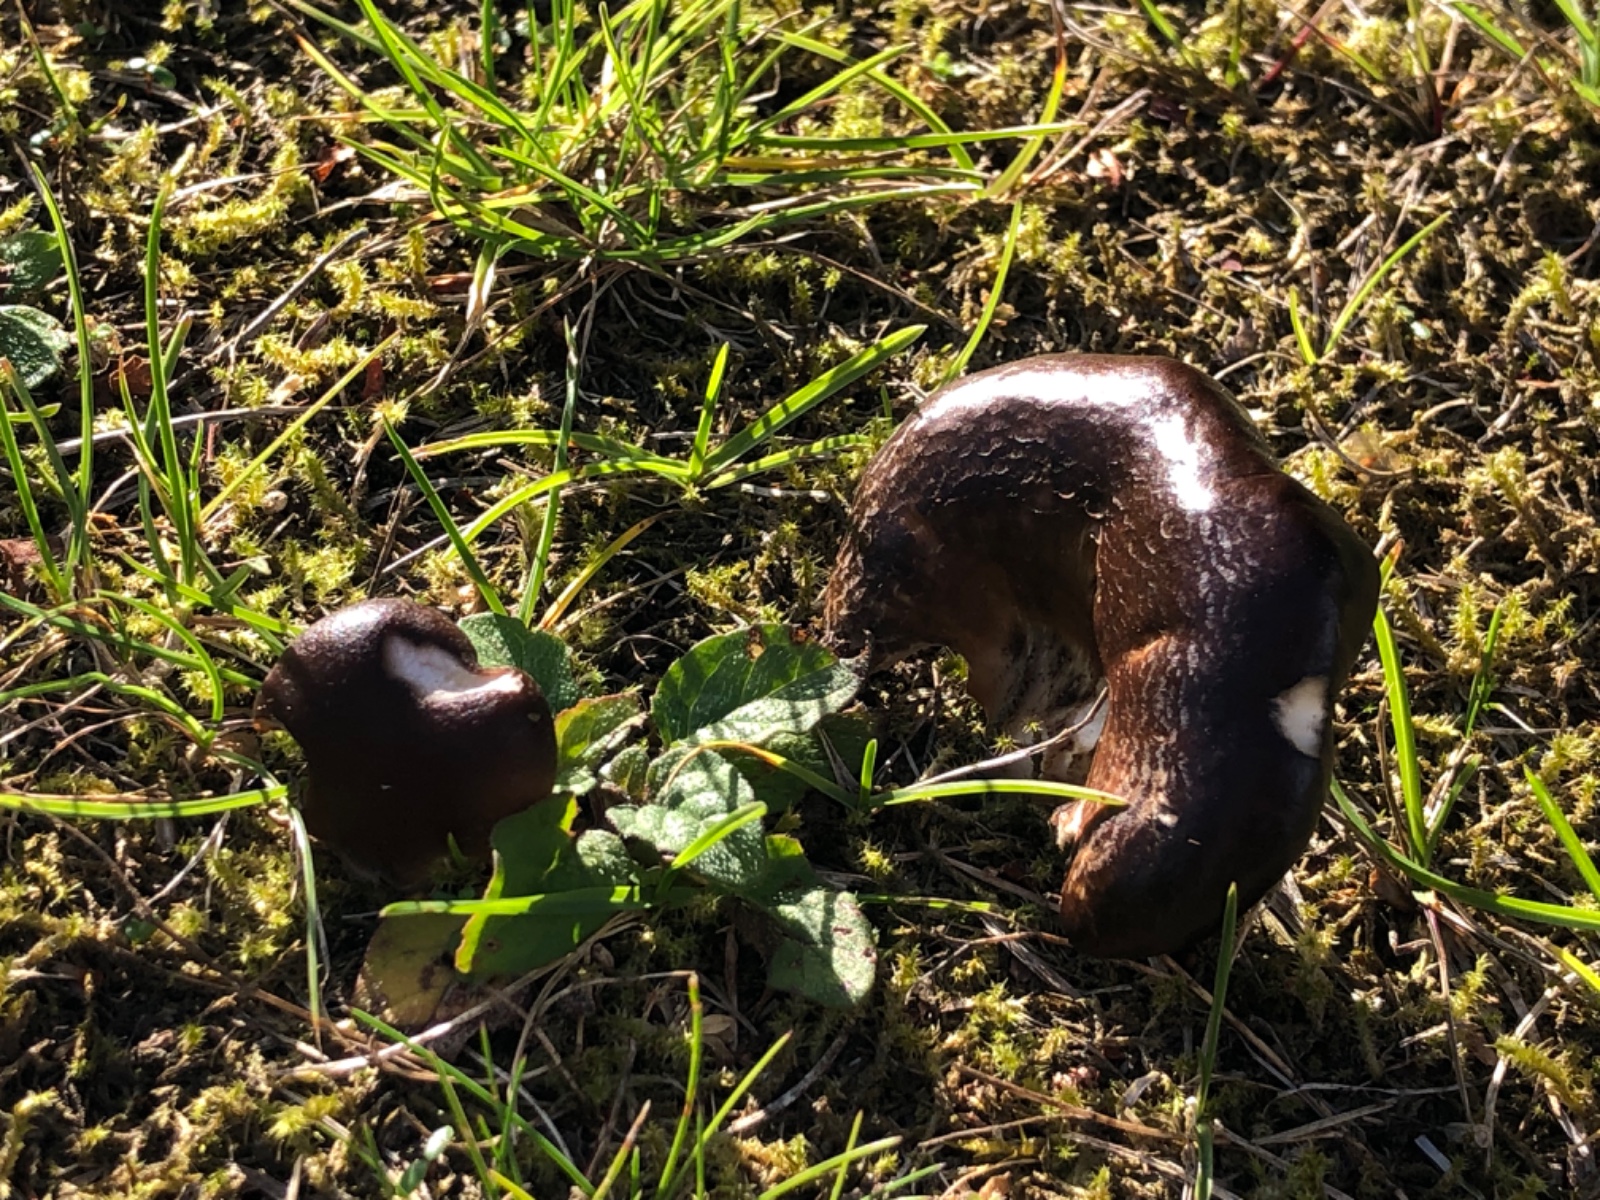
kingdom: Fungi
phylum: Basidiomycota
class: Agaricomycetes
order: Agaricales
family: Pleurotaceae
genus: Hohenbuehelia
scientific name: Hohenbuehelia tremula
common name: førne-filthat
